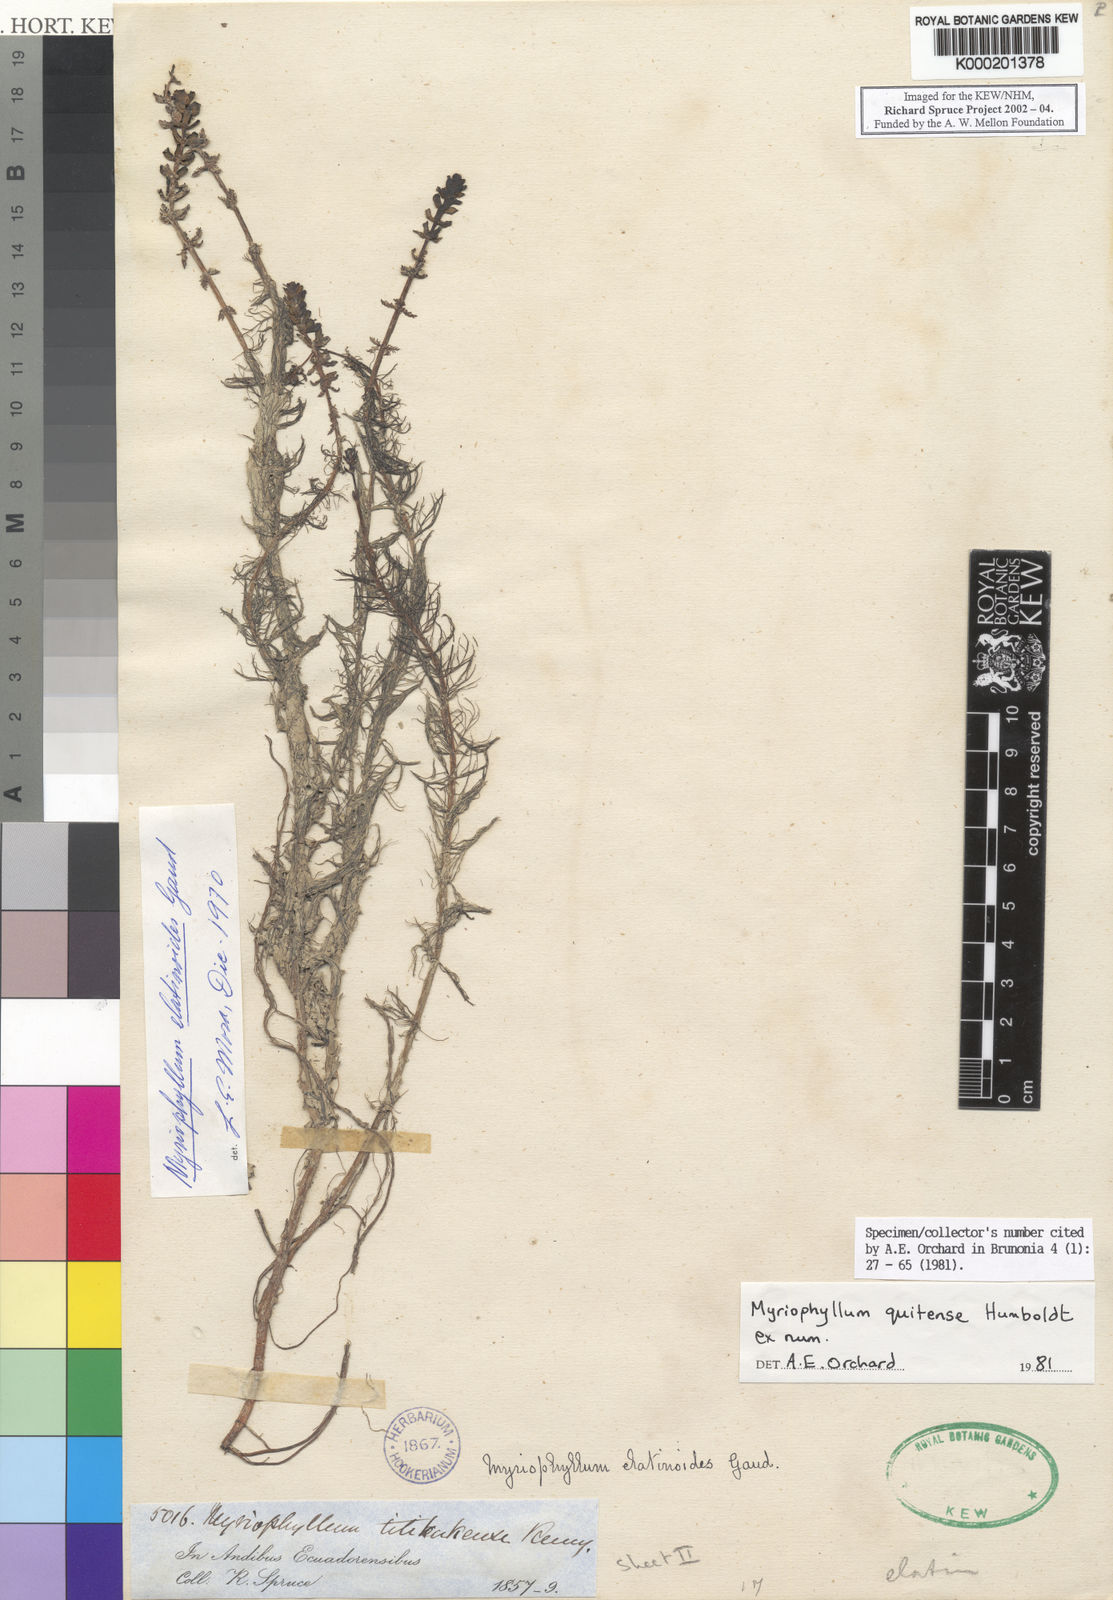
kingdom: Plantae
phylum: Tracheophyta
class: Magnoliopsida
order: Saxifragales
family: Haloragaceae
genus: Myriophyllum
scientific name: Myriophyllum quitense
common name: Andean water milfoil
